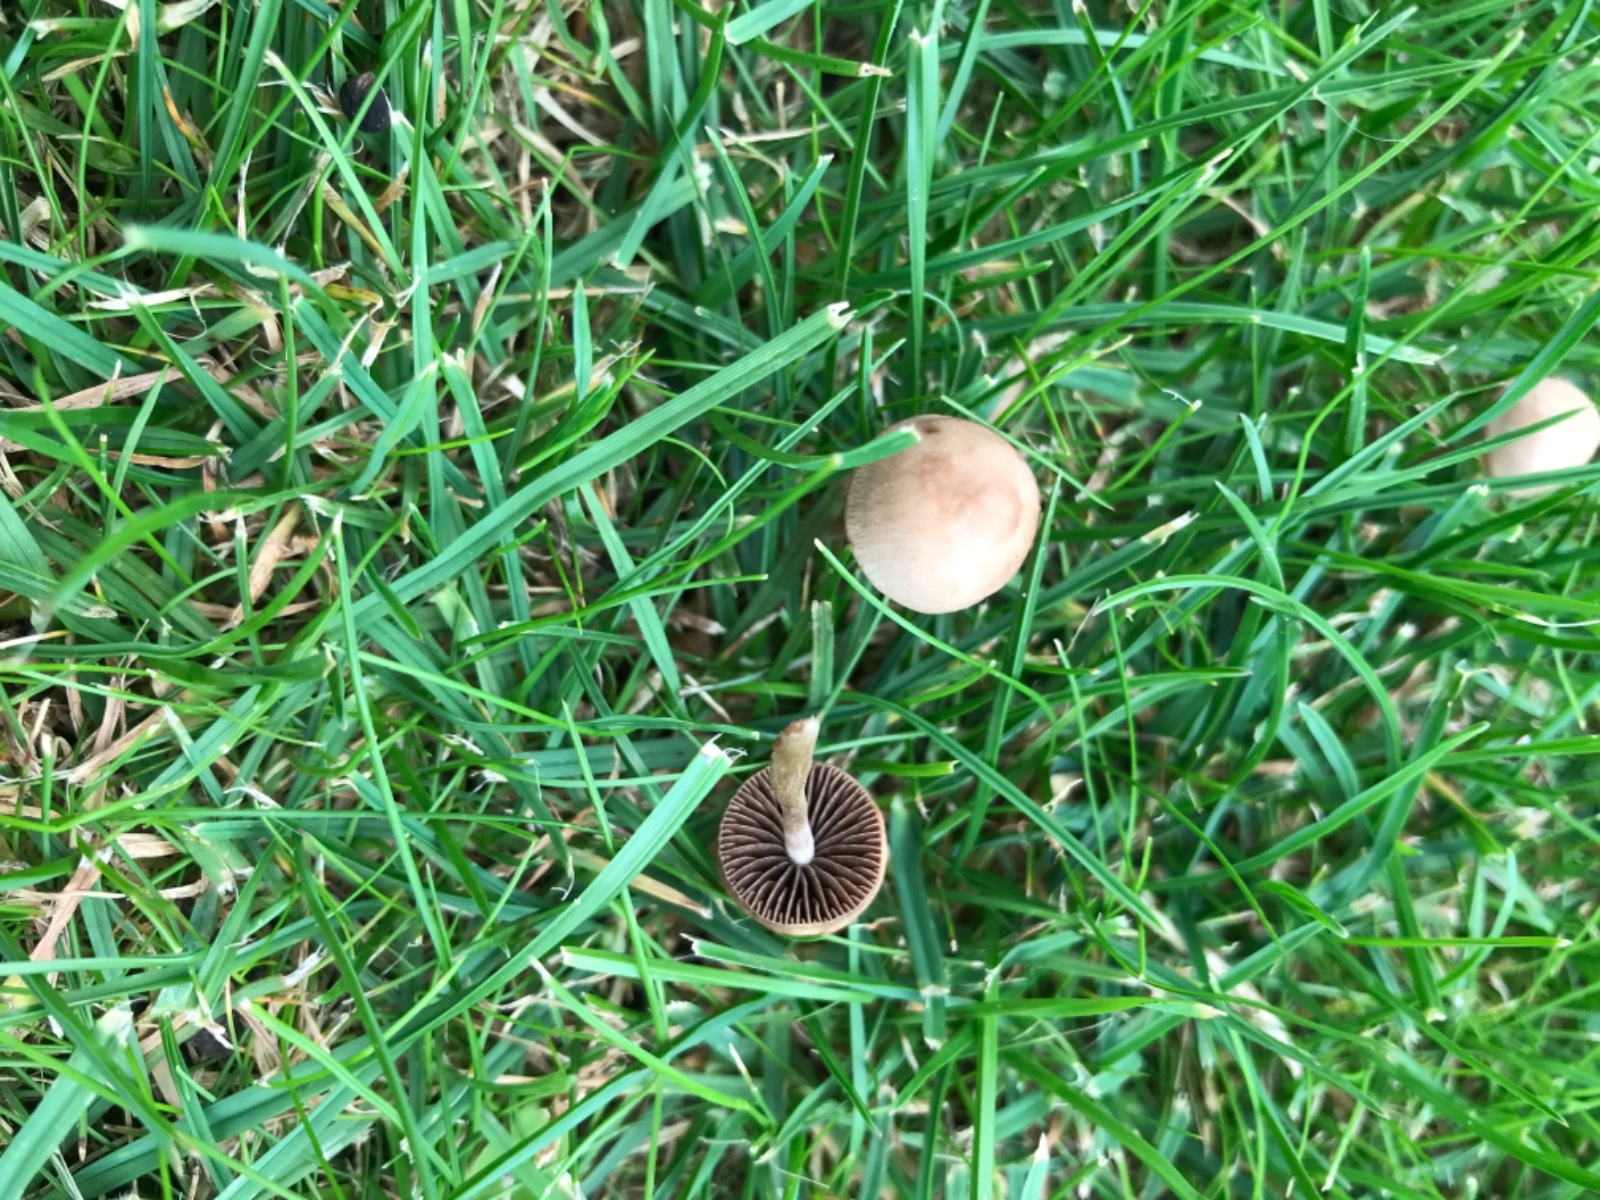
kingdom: Fungi
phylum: Basidiomycota
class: Agaricomycetes
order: Agaricales
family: Bolbitiaceae
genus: Panaeolina
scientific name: Panaeolina foenisecii
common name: høslætsvamp
